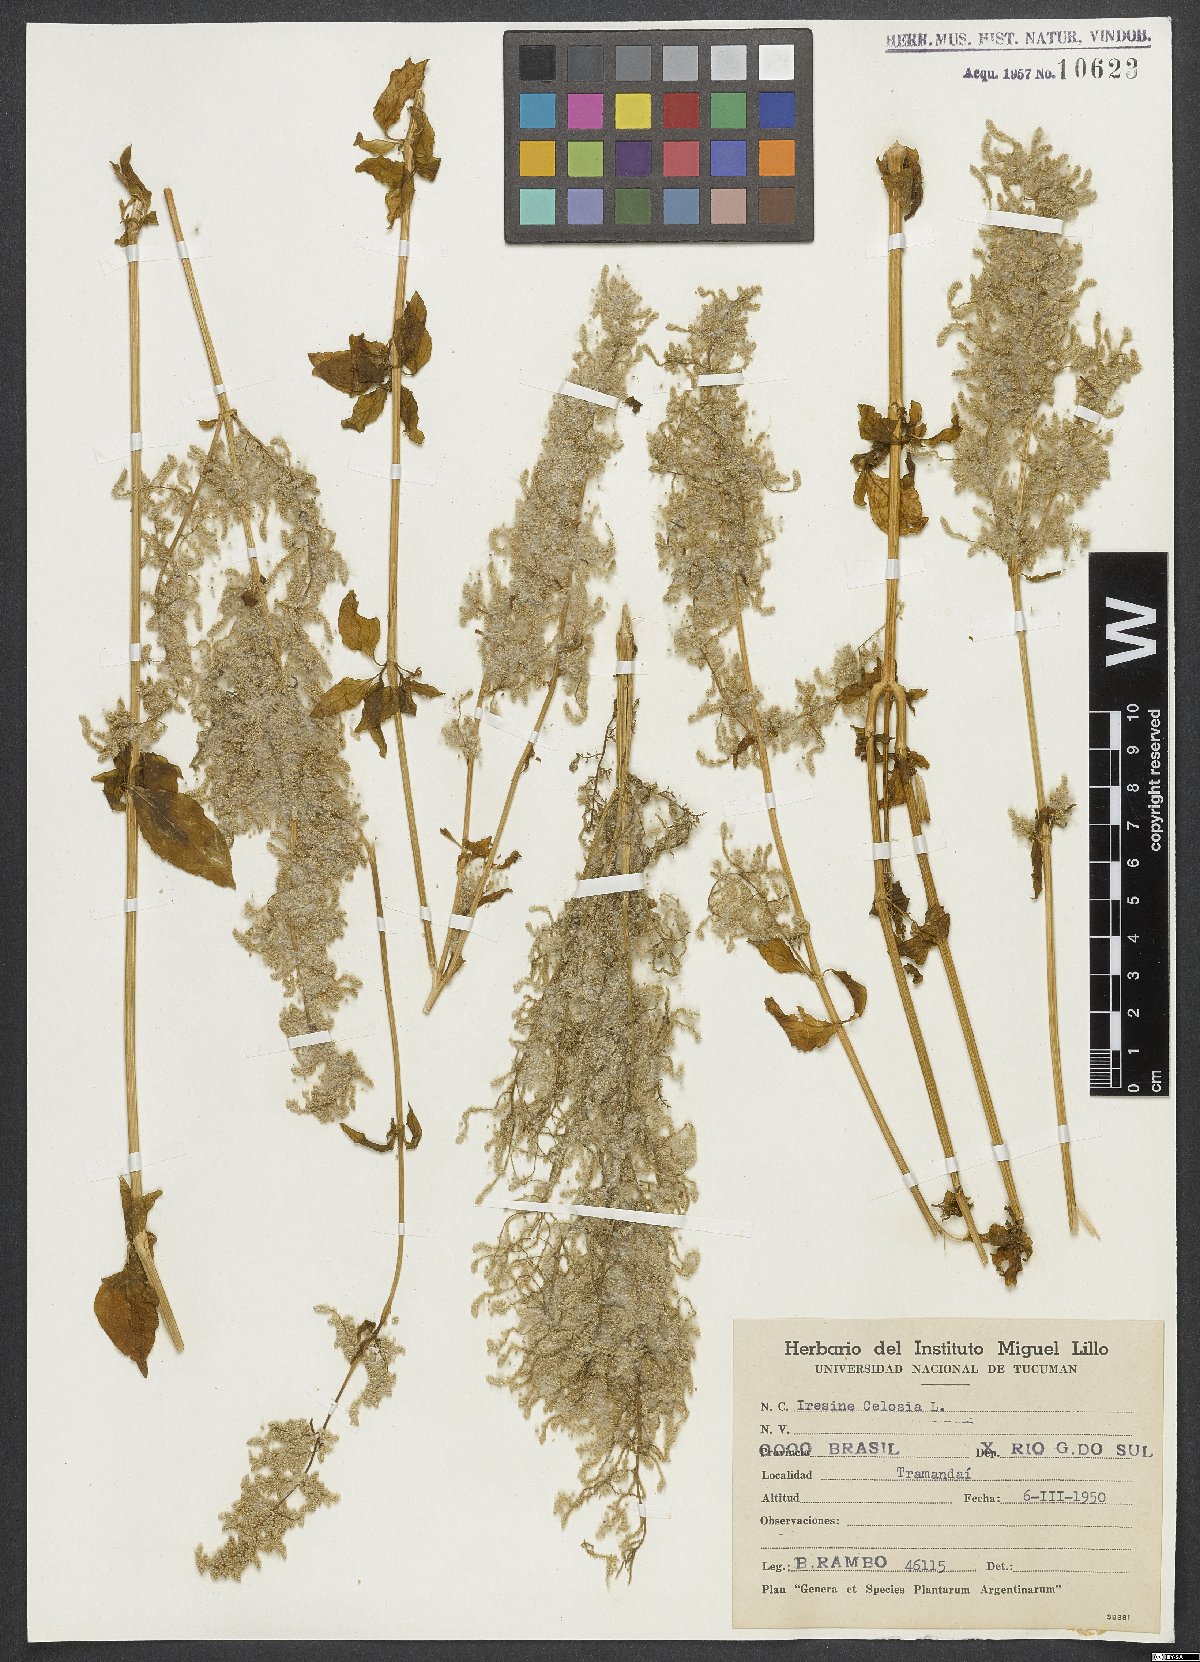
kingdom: Plantae
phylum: Tracheophyta
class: Magnoliopsida
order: Caryophyllales
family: Amaranthaceae
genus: Iresine
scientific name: Iresine rhizomatosa
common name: Juda's-bush
